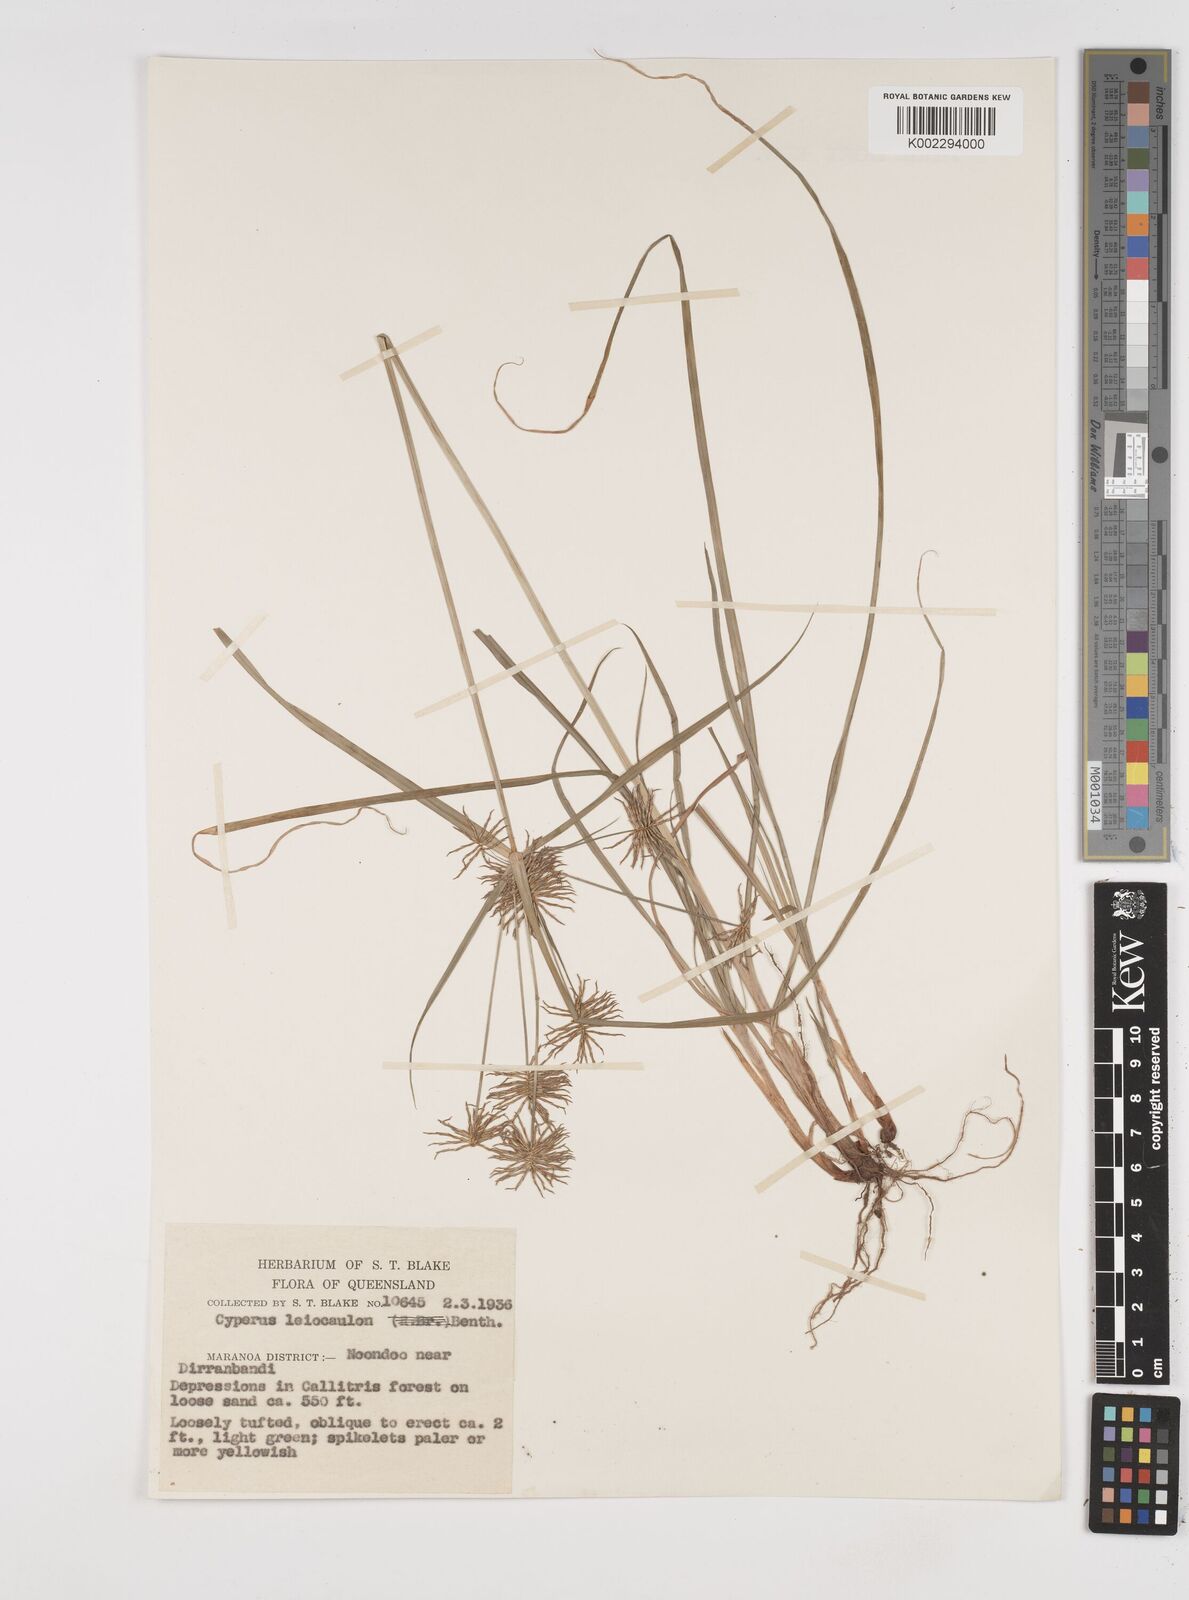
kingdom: Plantae
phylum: Tracheophyta
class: Liliopsida
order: Poales
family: Cyperaceae
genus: Cyperus
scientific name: Cyperus leiocaulon
